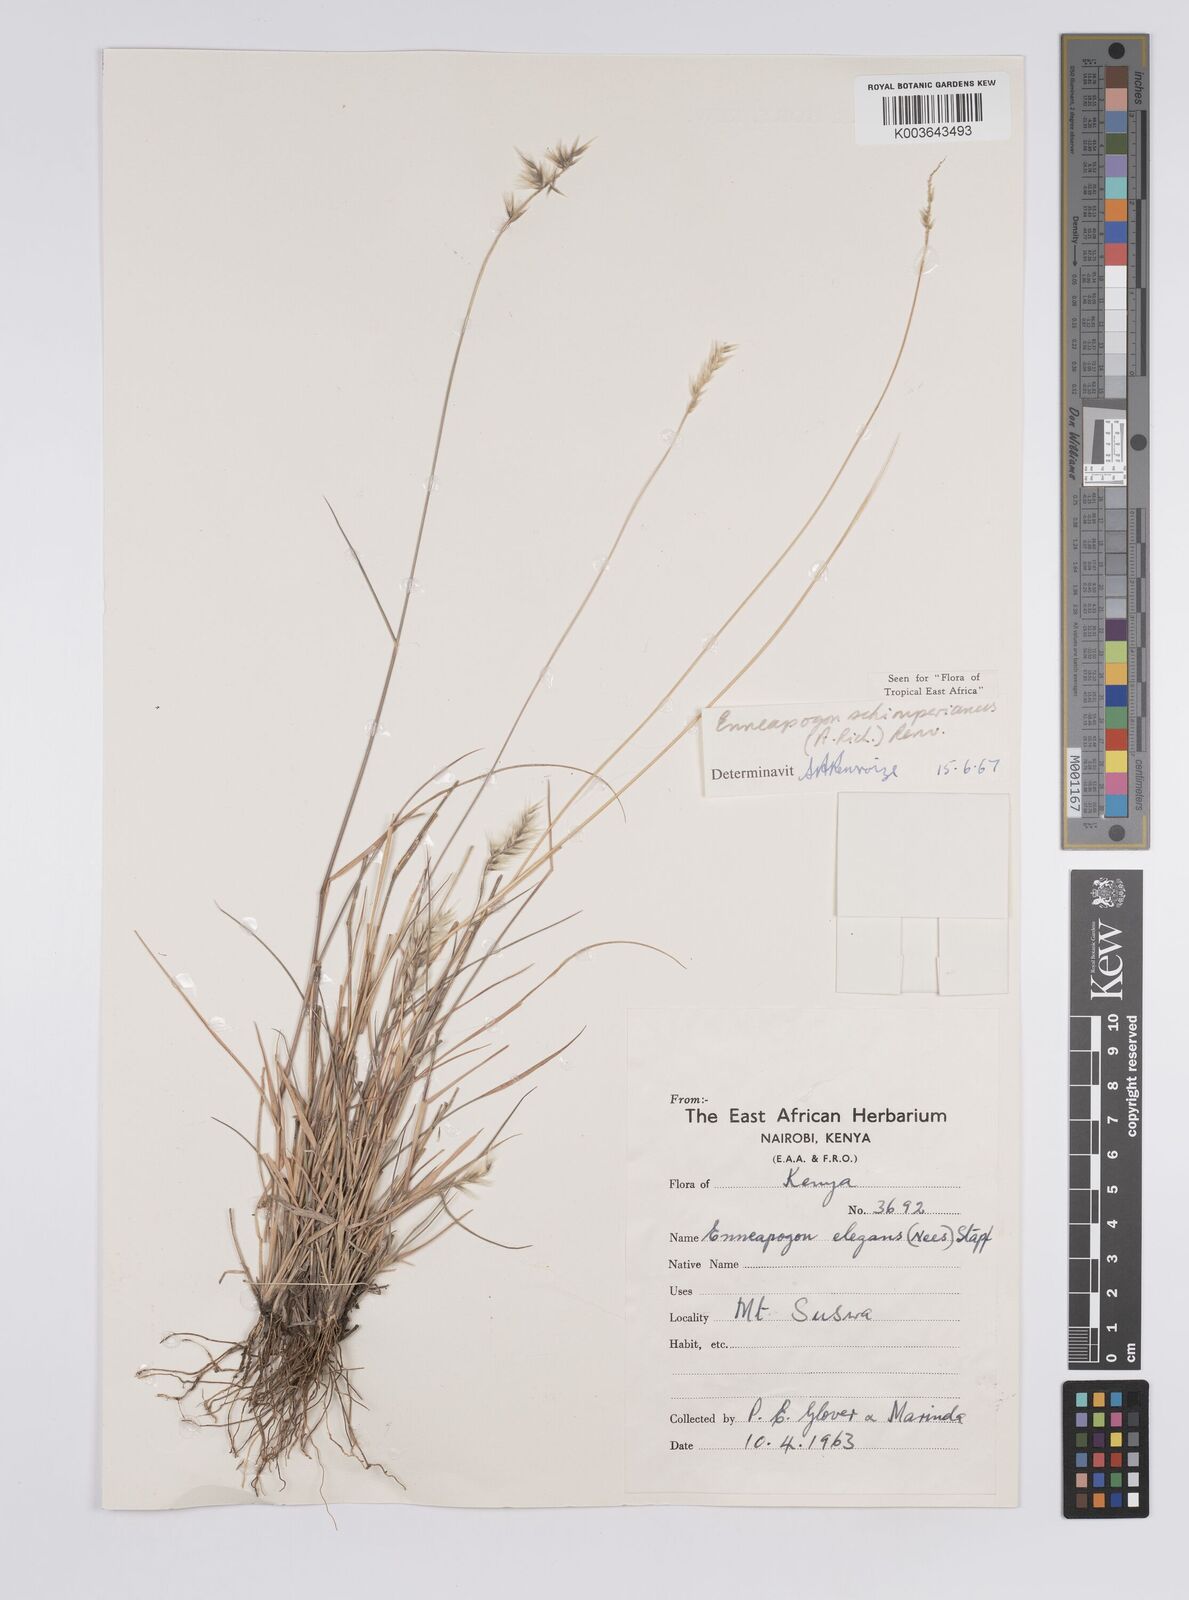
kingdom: Plantae
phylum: Tracheophyta
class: Liliopsida
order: Poales
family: Poaceae
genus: Enneapogon
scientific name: Enneapogon persicus
